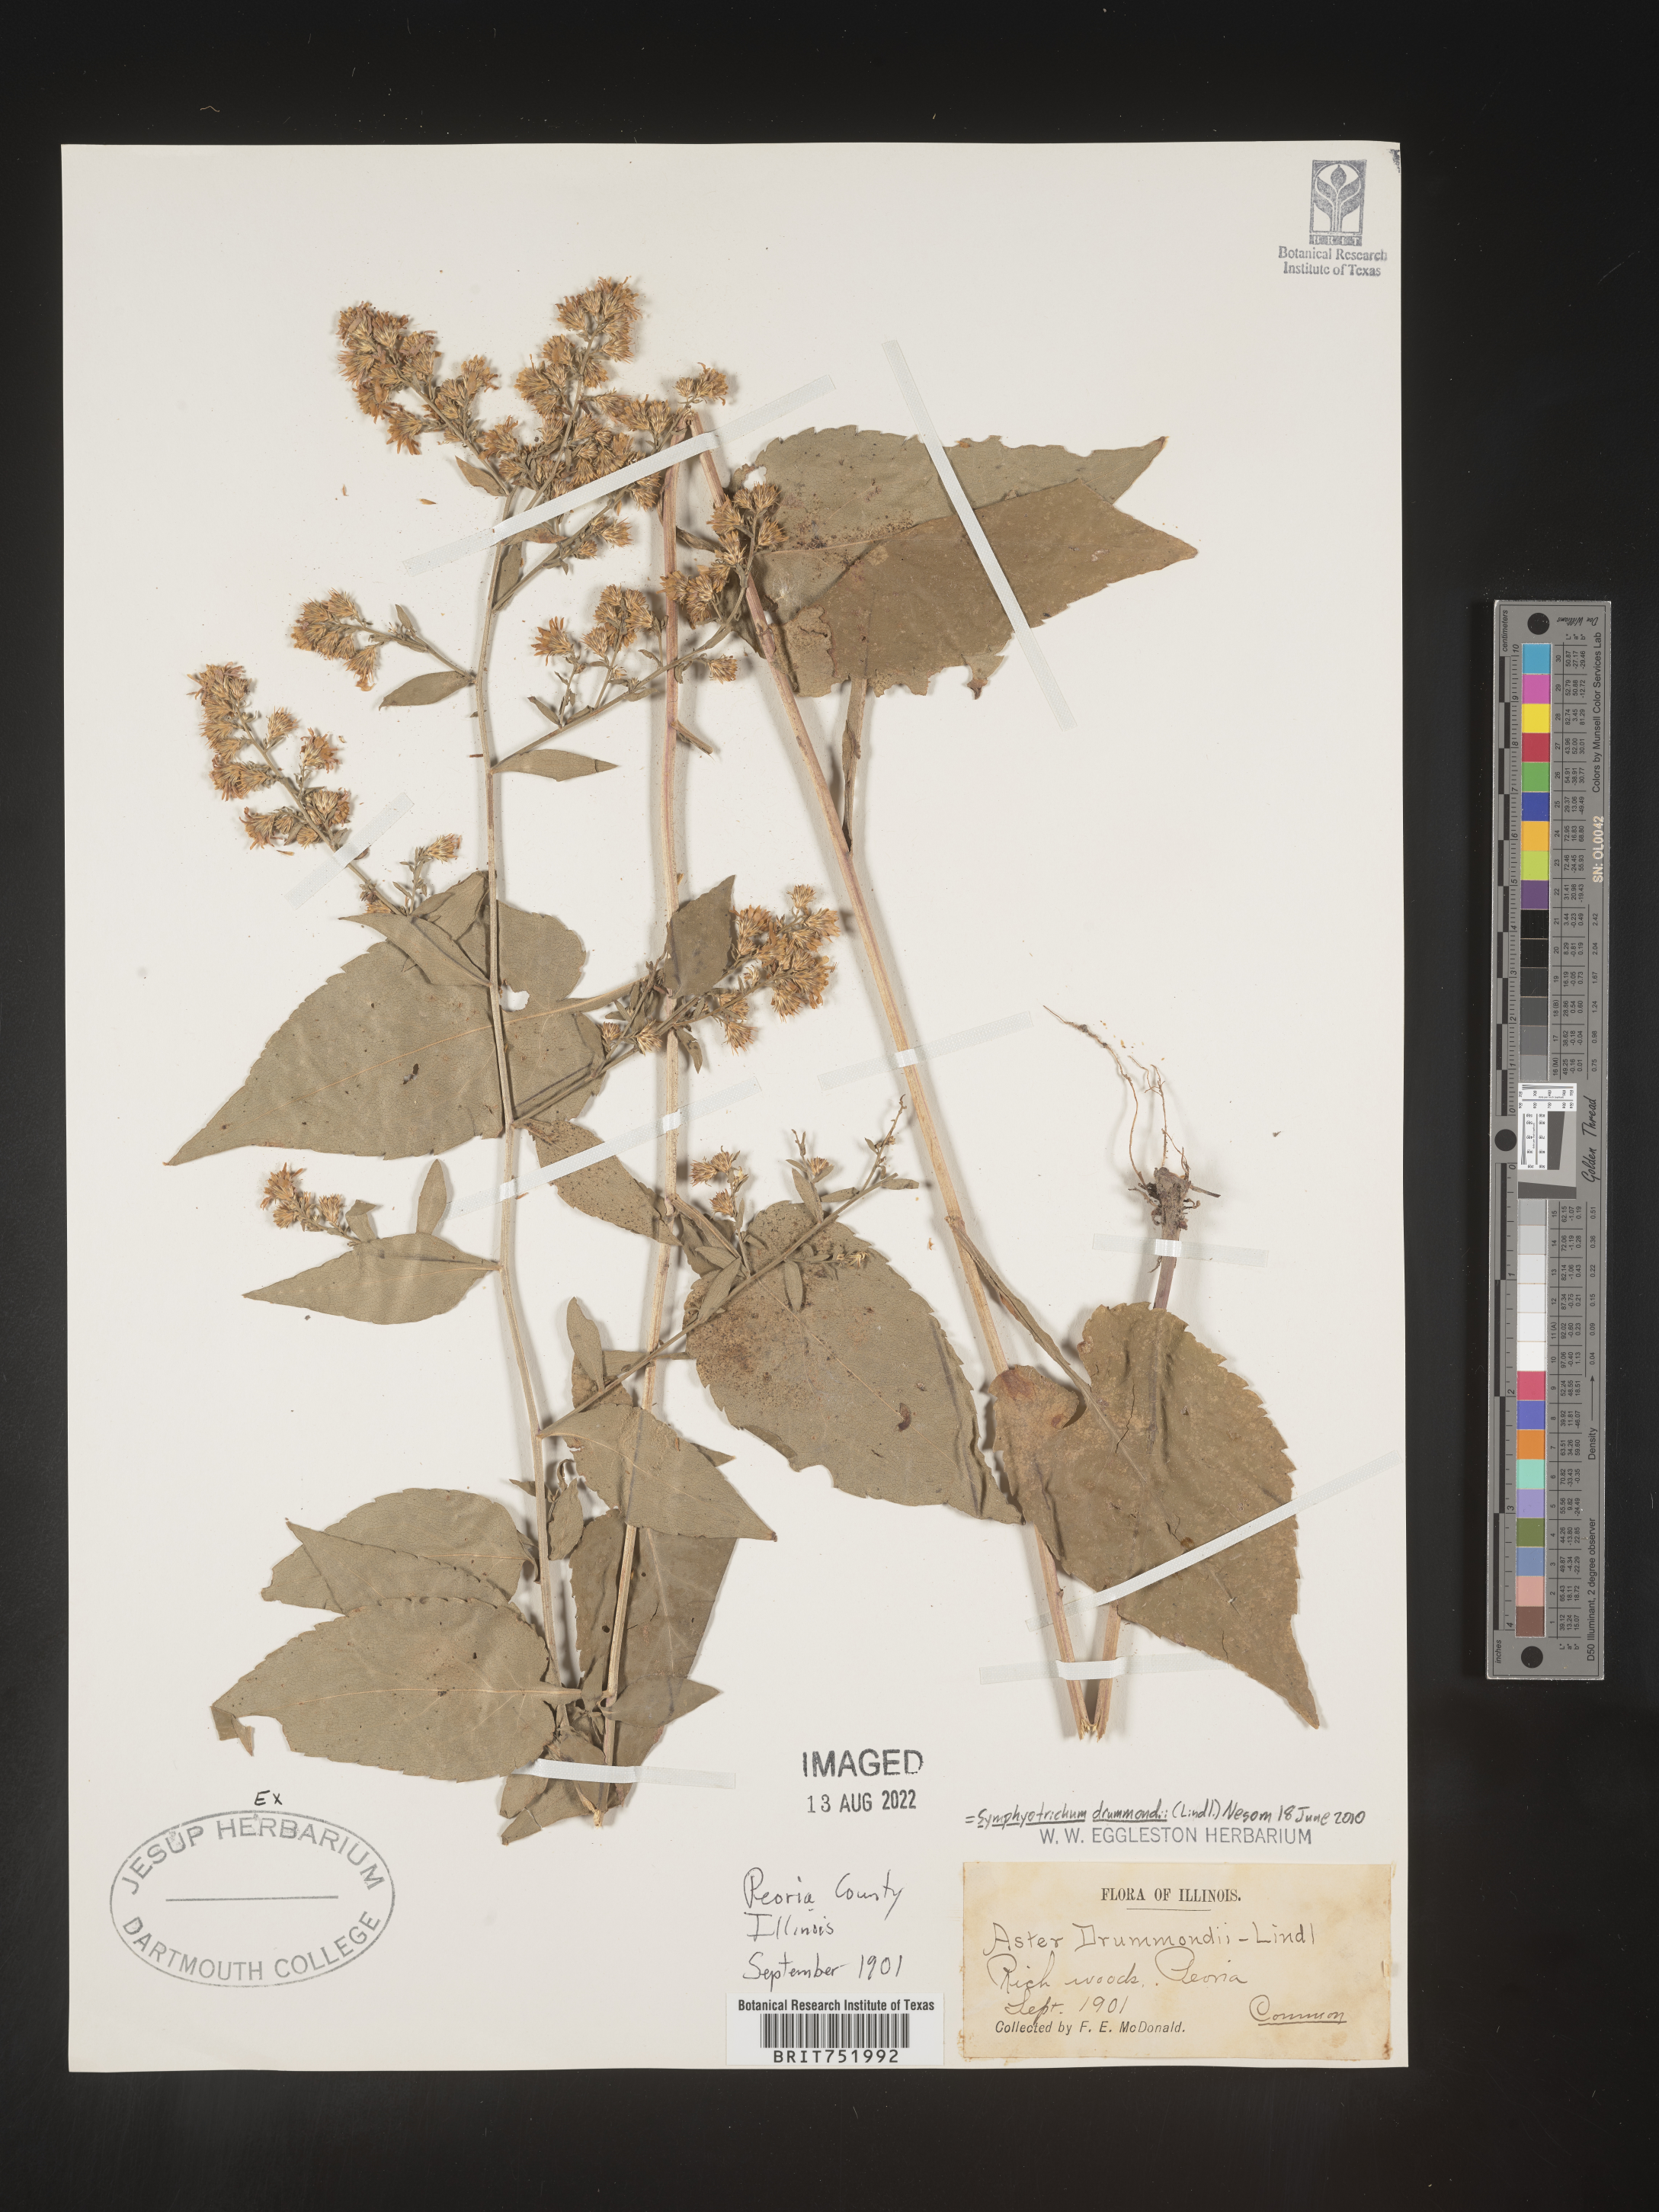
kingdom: Plantae
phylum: Tracheophyta
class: Magnoliopsida
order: Asterales
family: Asteraceae
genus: Symphyotrichum
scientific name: Symphyotrichum drummondii
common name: Drummond's aster
